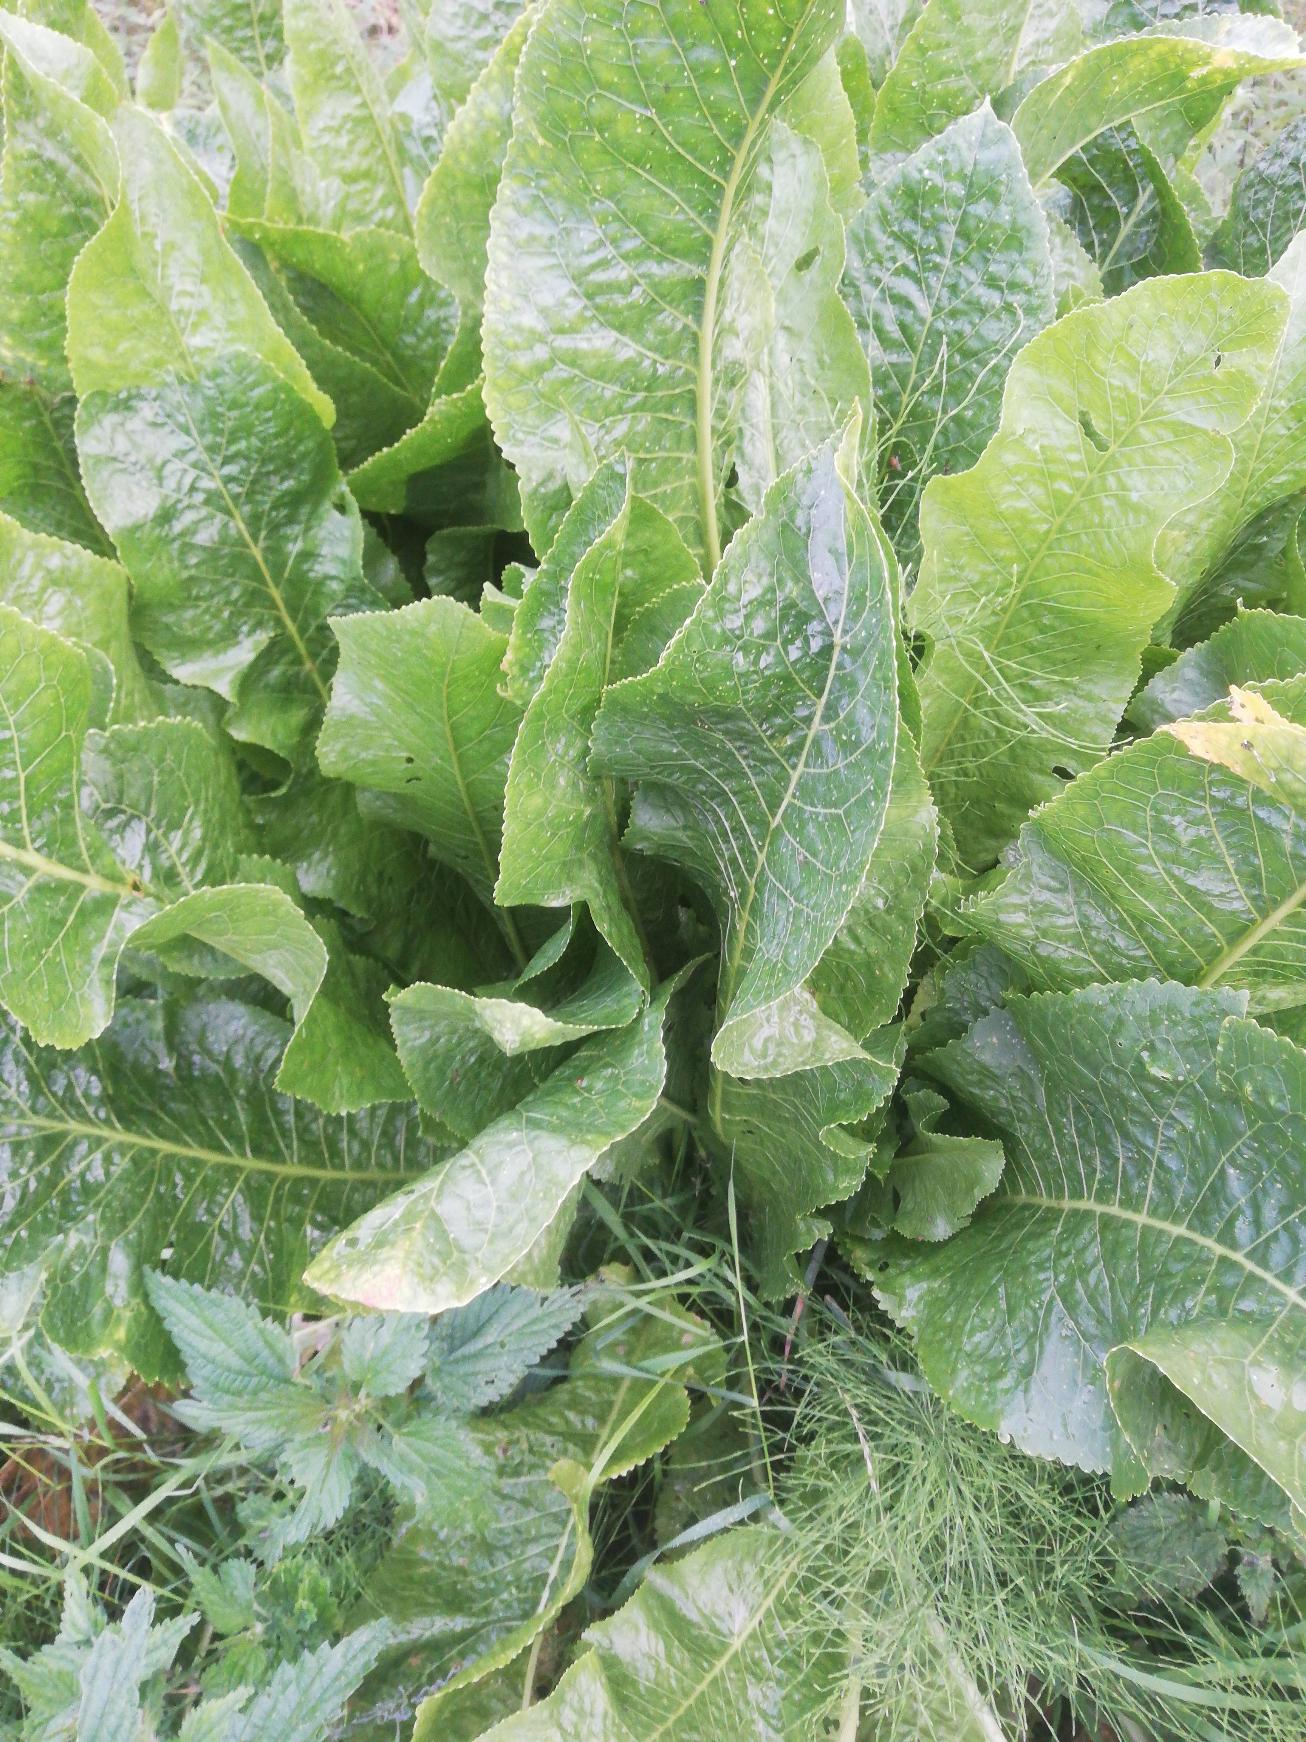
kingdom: Plantae
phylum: Tracheophyta
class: Magnoliopsida
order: Brassicales
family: Brassicaceae
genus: Armoracia
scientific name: Armoracia rusticana
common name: Peberrod
